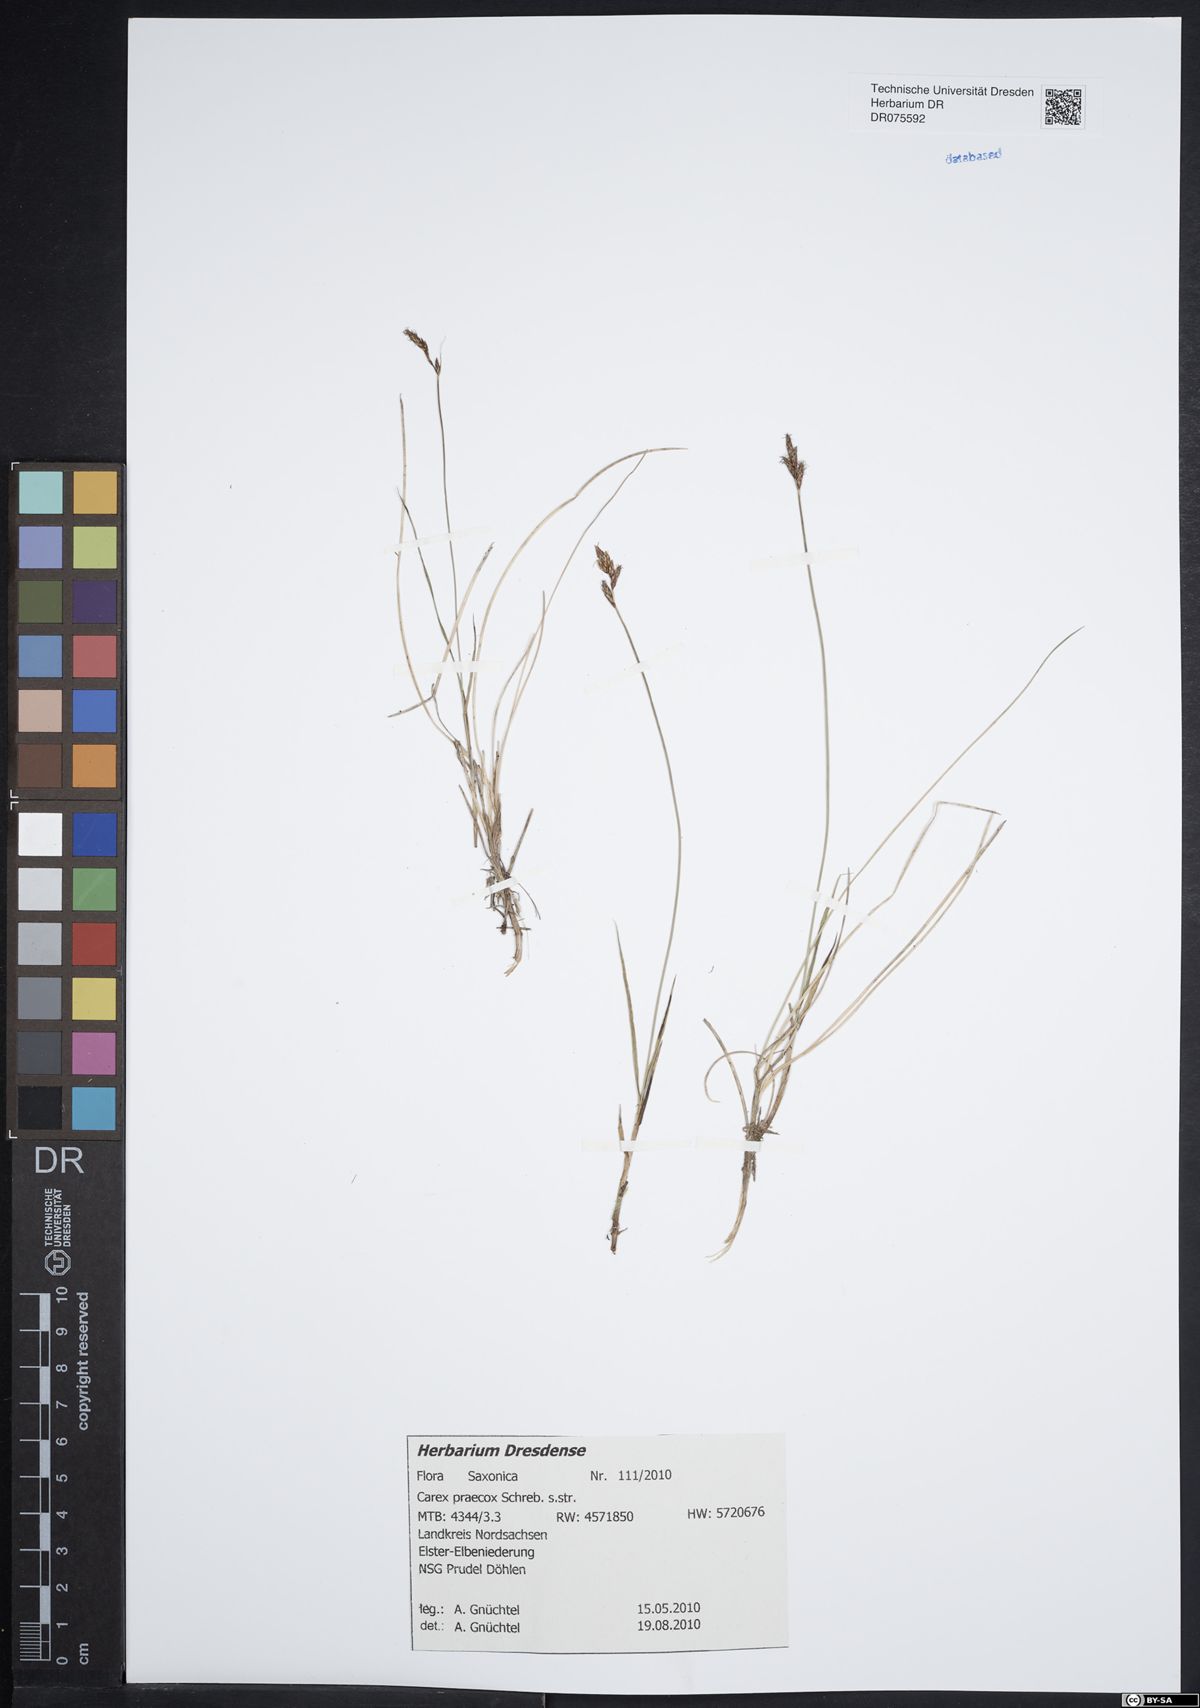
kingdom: Plantae
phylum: Tracheophyta
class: Liliopsida
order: Poales
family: Cyperaceae
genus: Carex
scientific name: Carex praecox
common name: Early sedge
